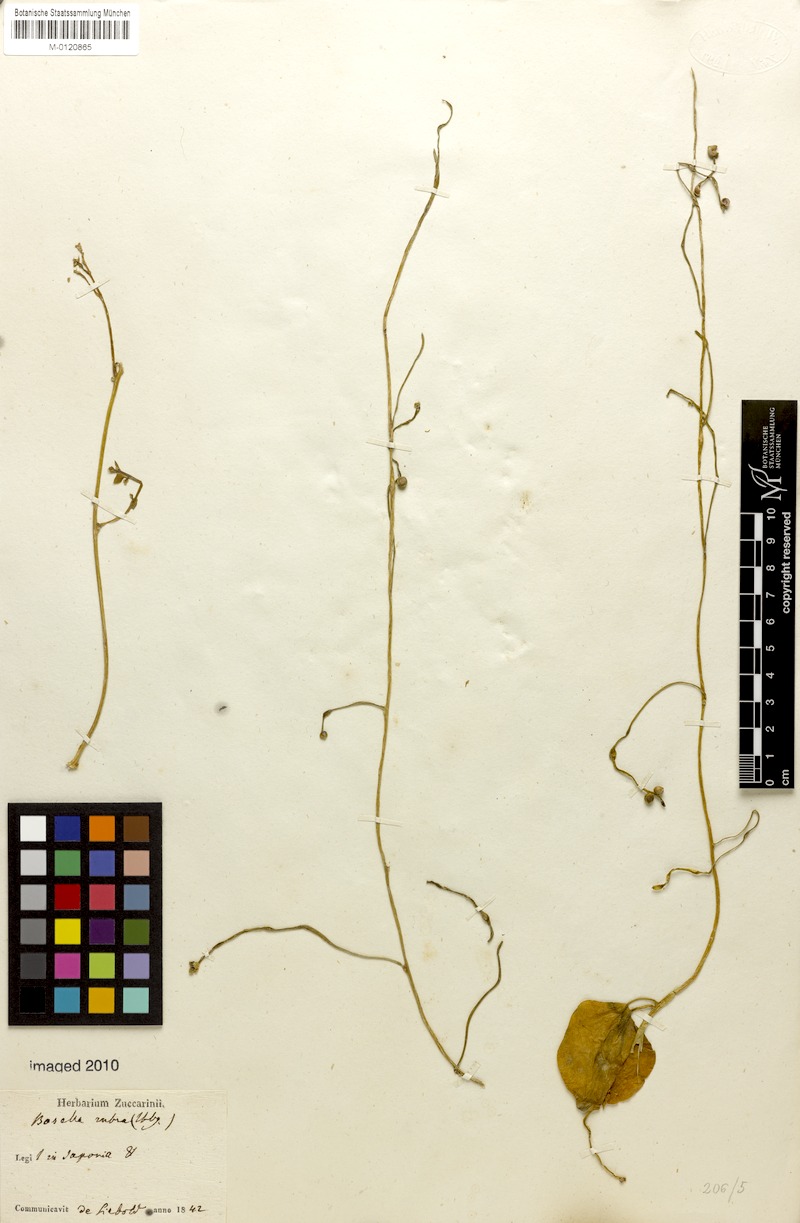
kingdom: Plantae
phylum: Tracheophyta
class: Magnoliopsida
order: Caryophyllales
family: Basellaceae
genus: Basella
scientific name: Basella alba
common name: Indian spinach
